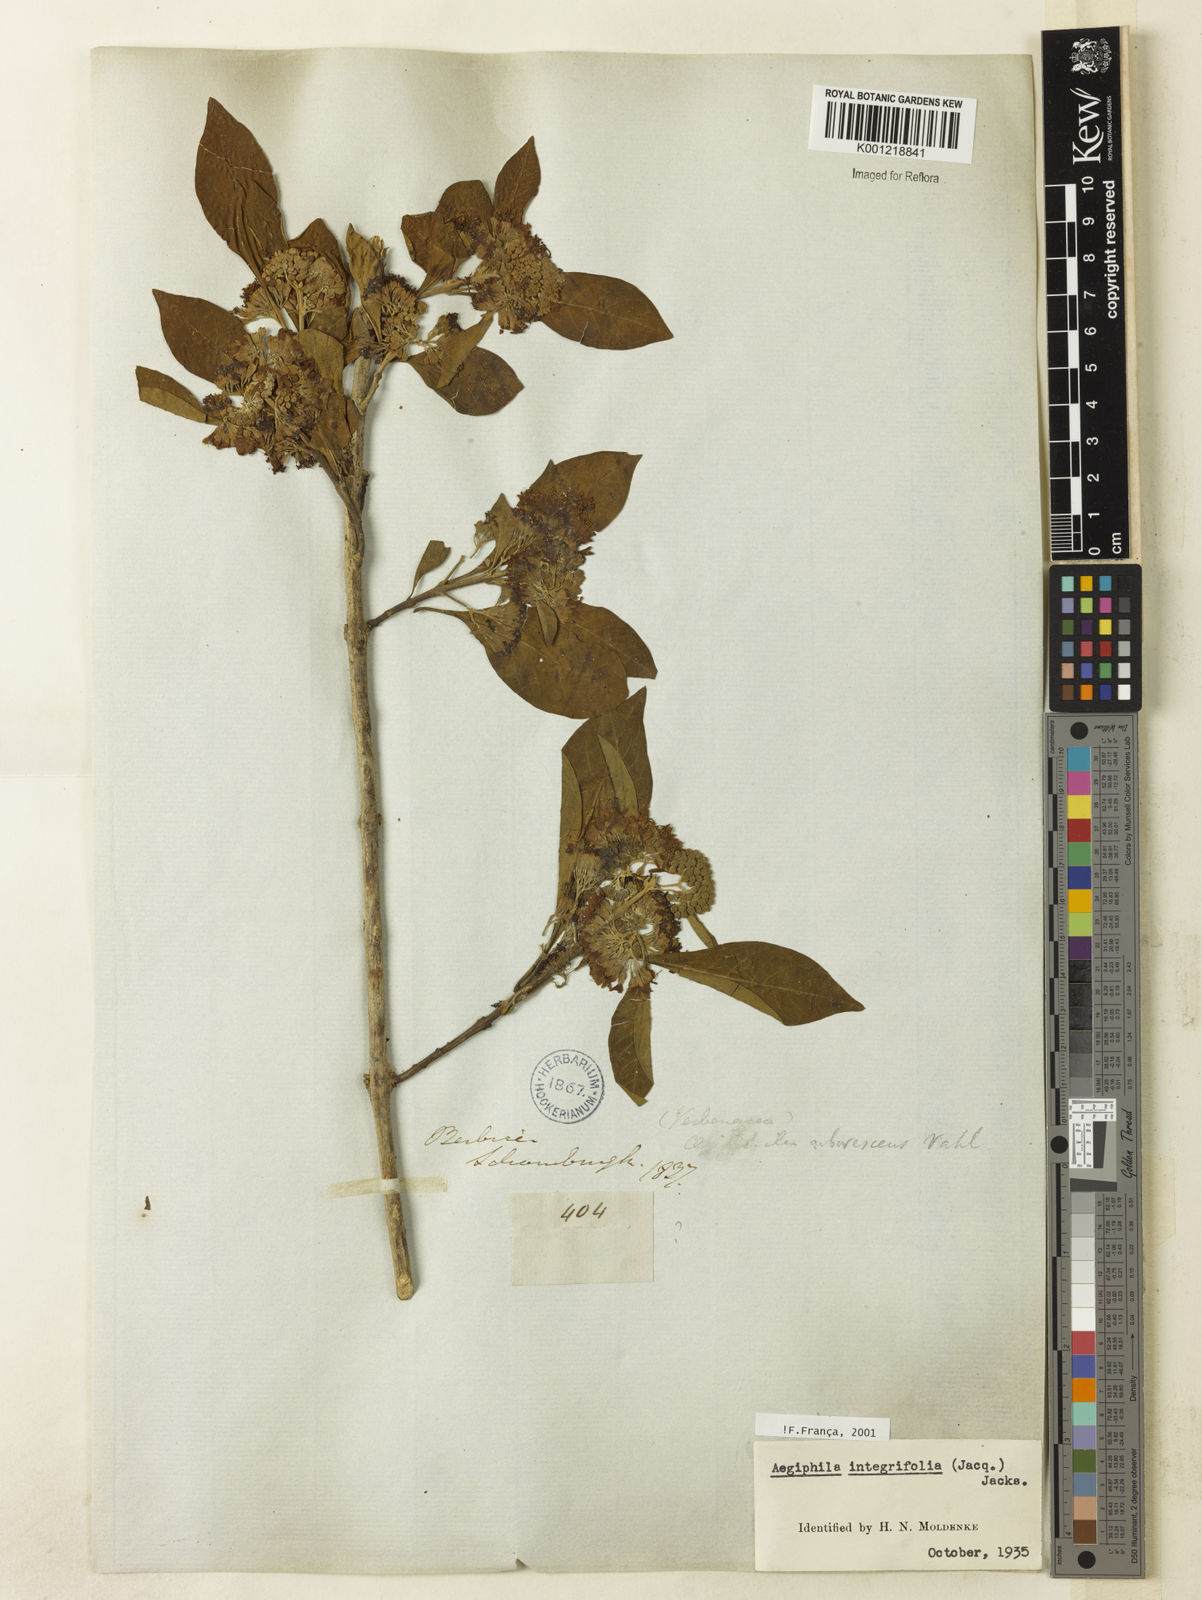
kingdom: Plantae
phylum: Tracheophyta
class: Magnoliopsida
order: Lamiales
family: Lamiaceae
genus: Aegiphila
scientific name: Aegiphila
